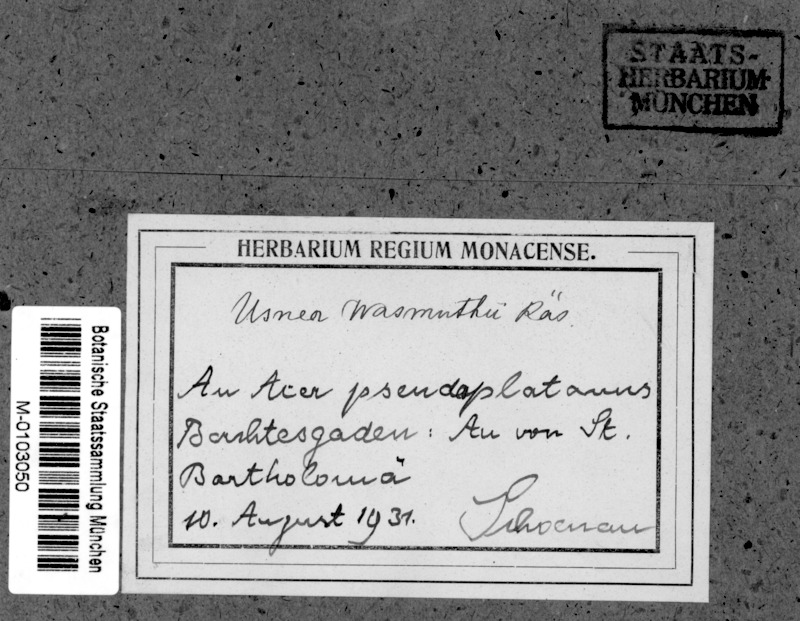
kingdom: Fungi
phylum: Ascomycota
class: Lecanoromycetes
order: Lecanorales
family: Parmeliaceae
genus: Usnea
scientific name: Usnea wasmuthii
